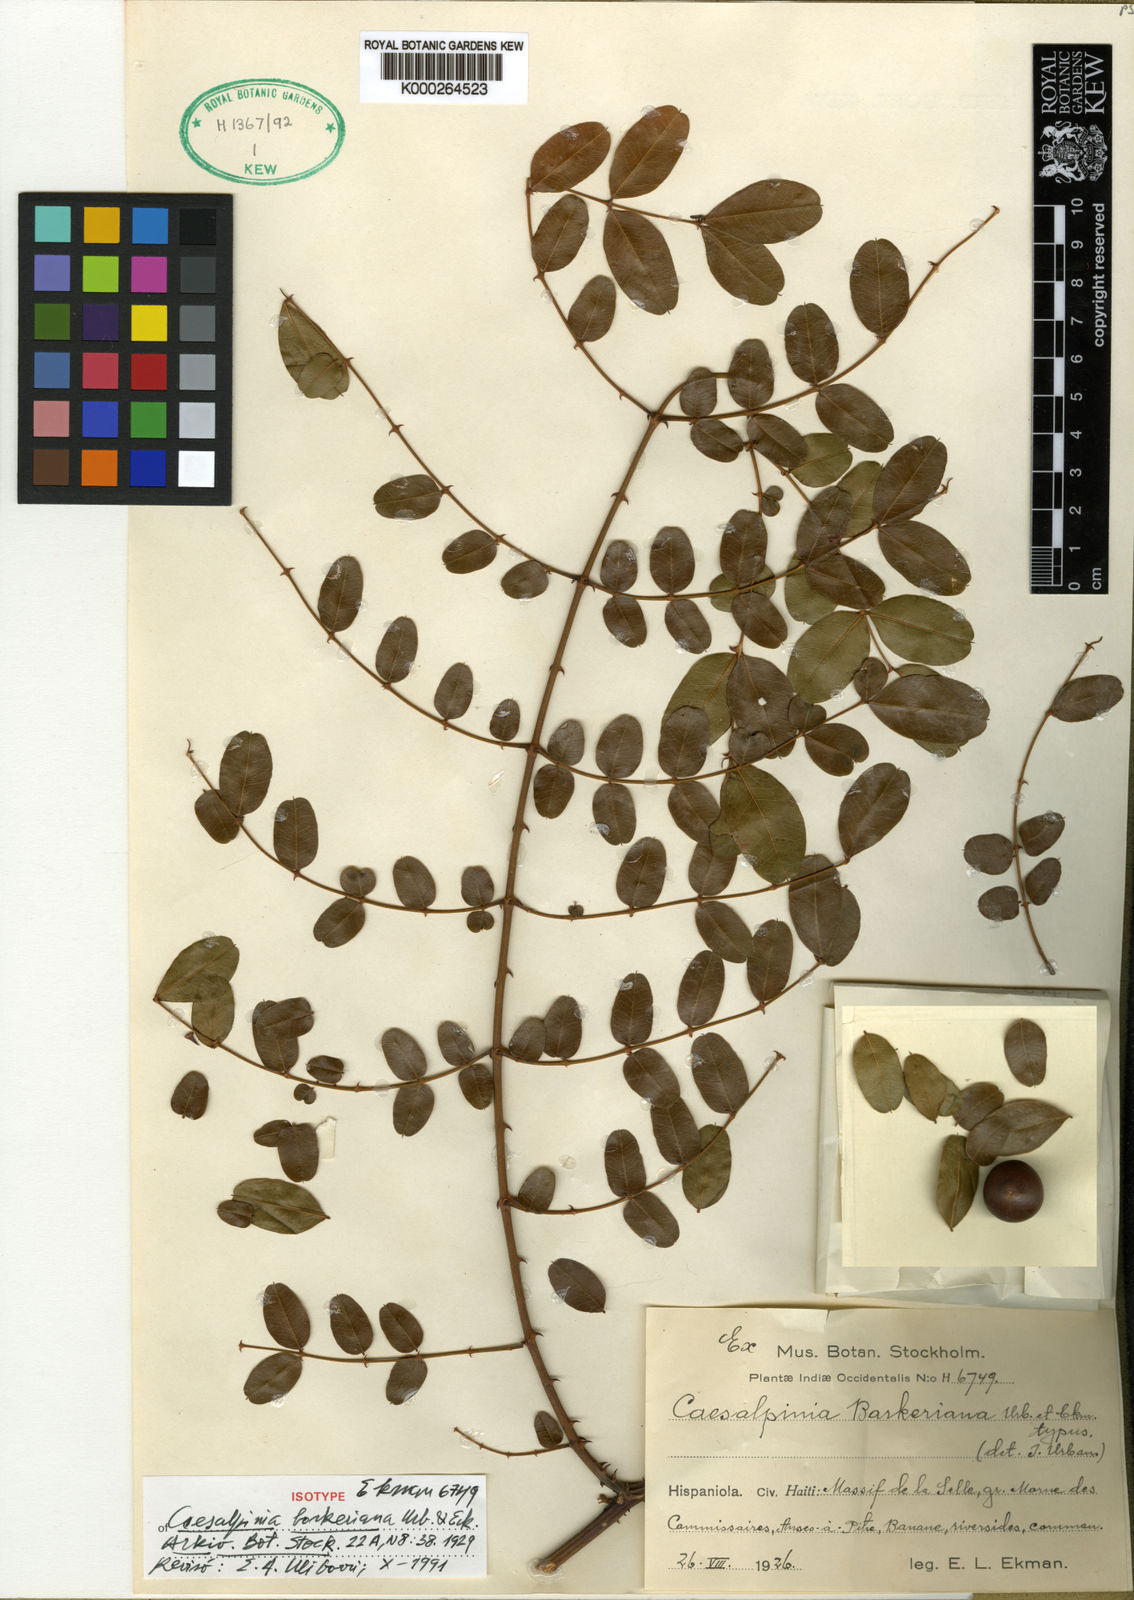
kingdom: Plantae
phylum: Tracheophyta
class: Magnoliopsida
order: Fabales
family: Fabaceae
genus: Guilandina
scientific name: Guilandina barkeriana
